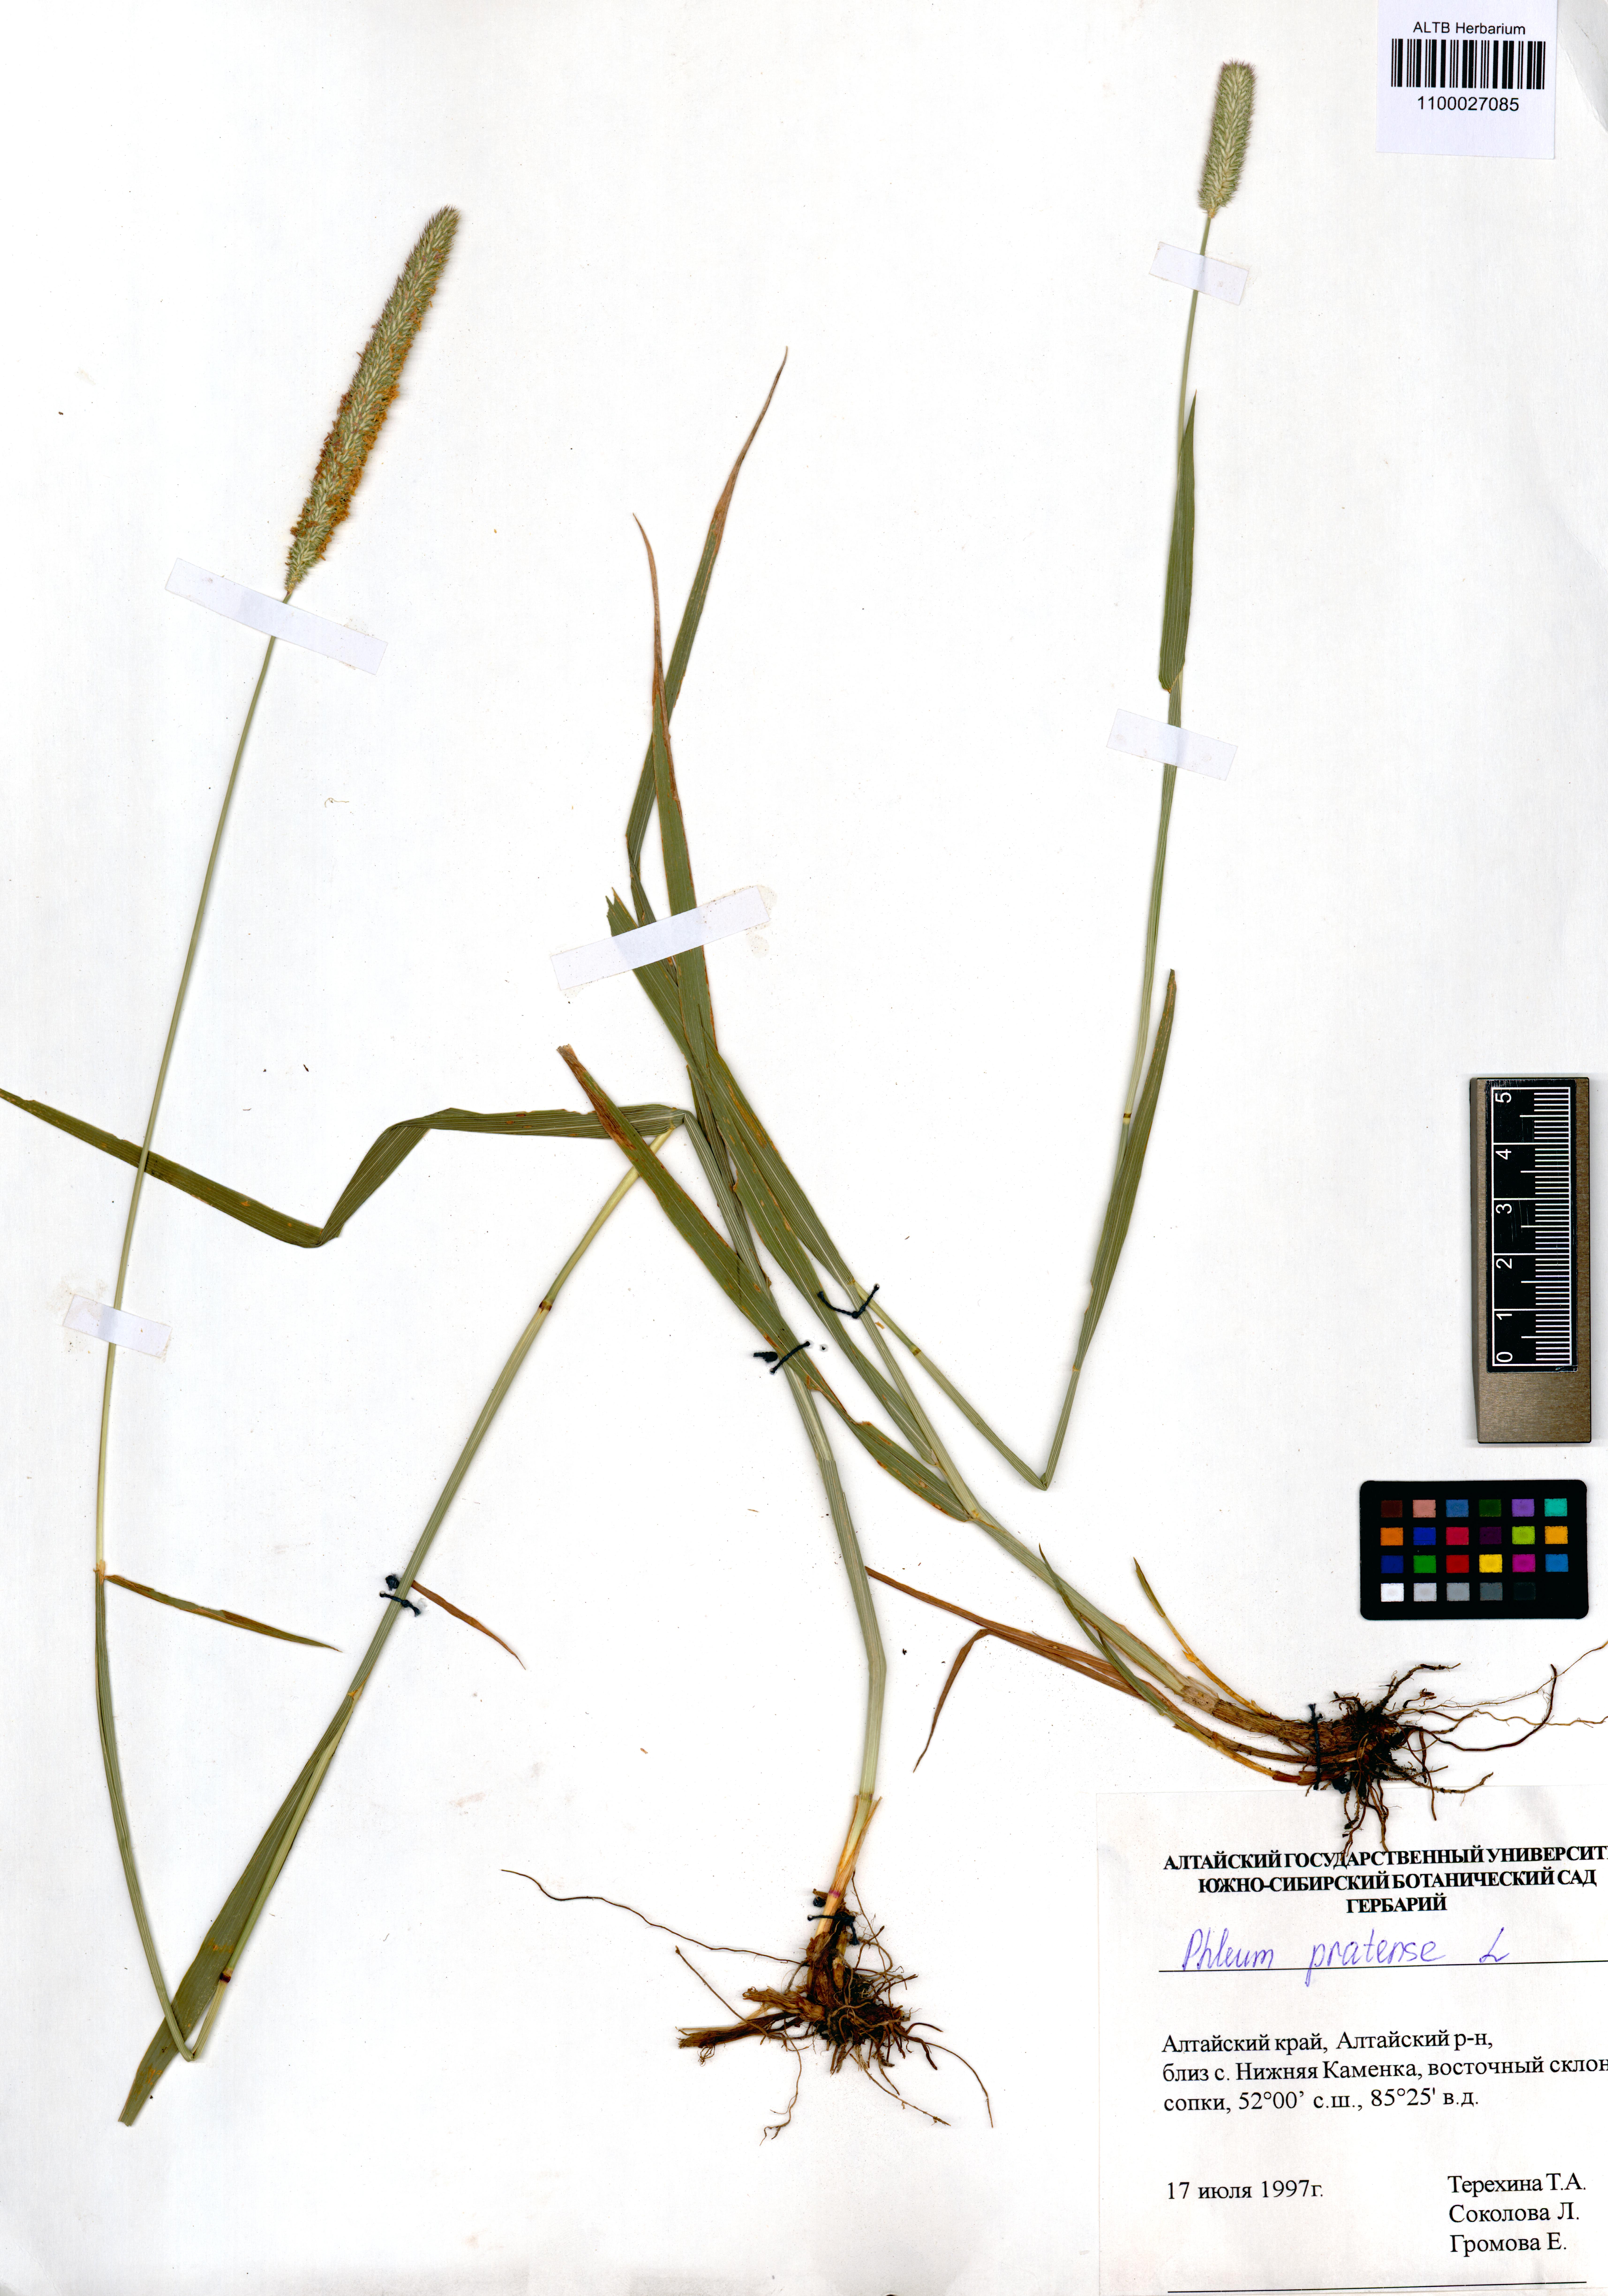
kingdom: Plantae
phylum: Tracheophyta
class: Liliopsida
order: Poales
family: Poaceae
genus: Phleum
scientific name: Phleum pratense
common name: Timothy grass
